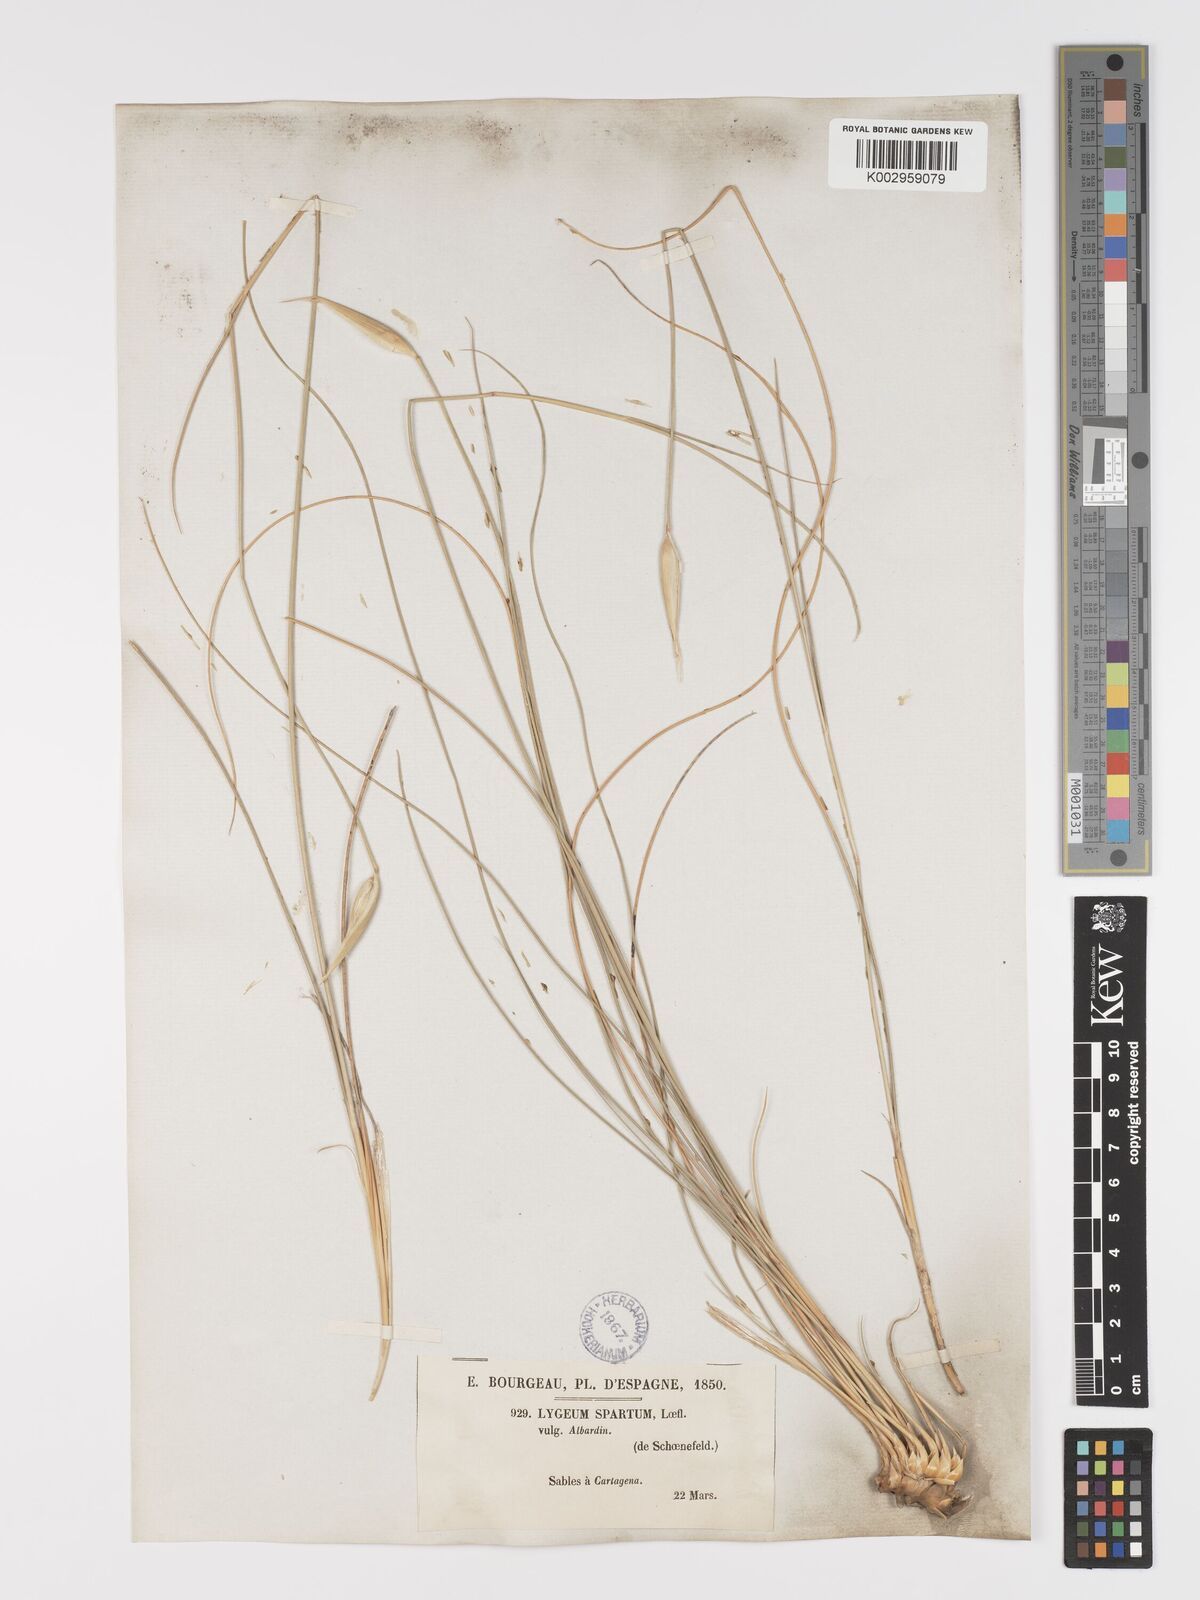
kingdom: Plantae
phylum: Tracheophyta
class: Liliopsida
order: Poales
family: Poaceae
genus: Lygeum
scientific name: Lygeum spartum
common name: Albardine
